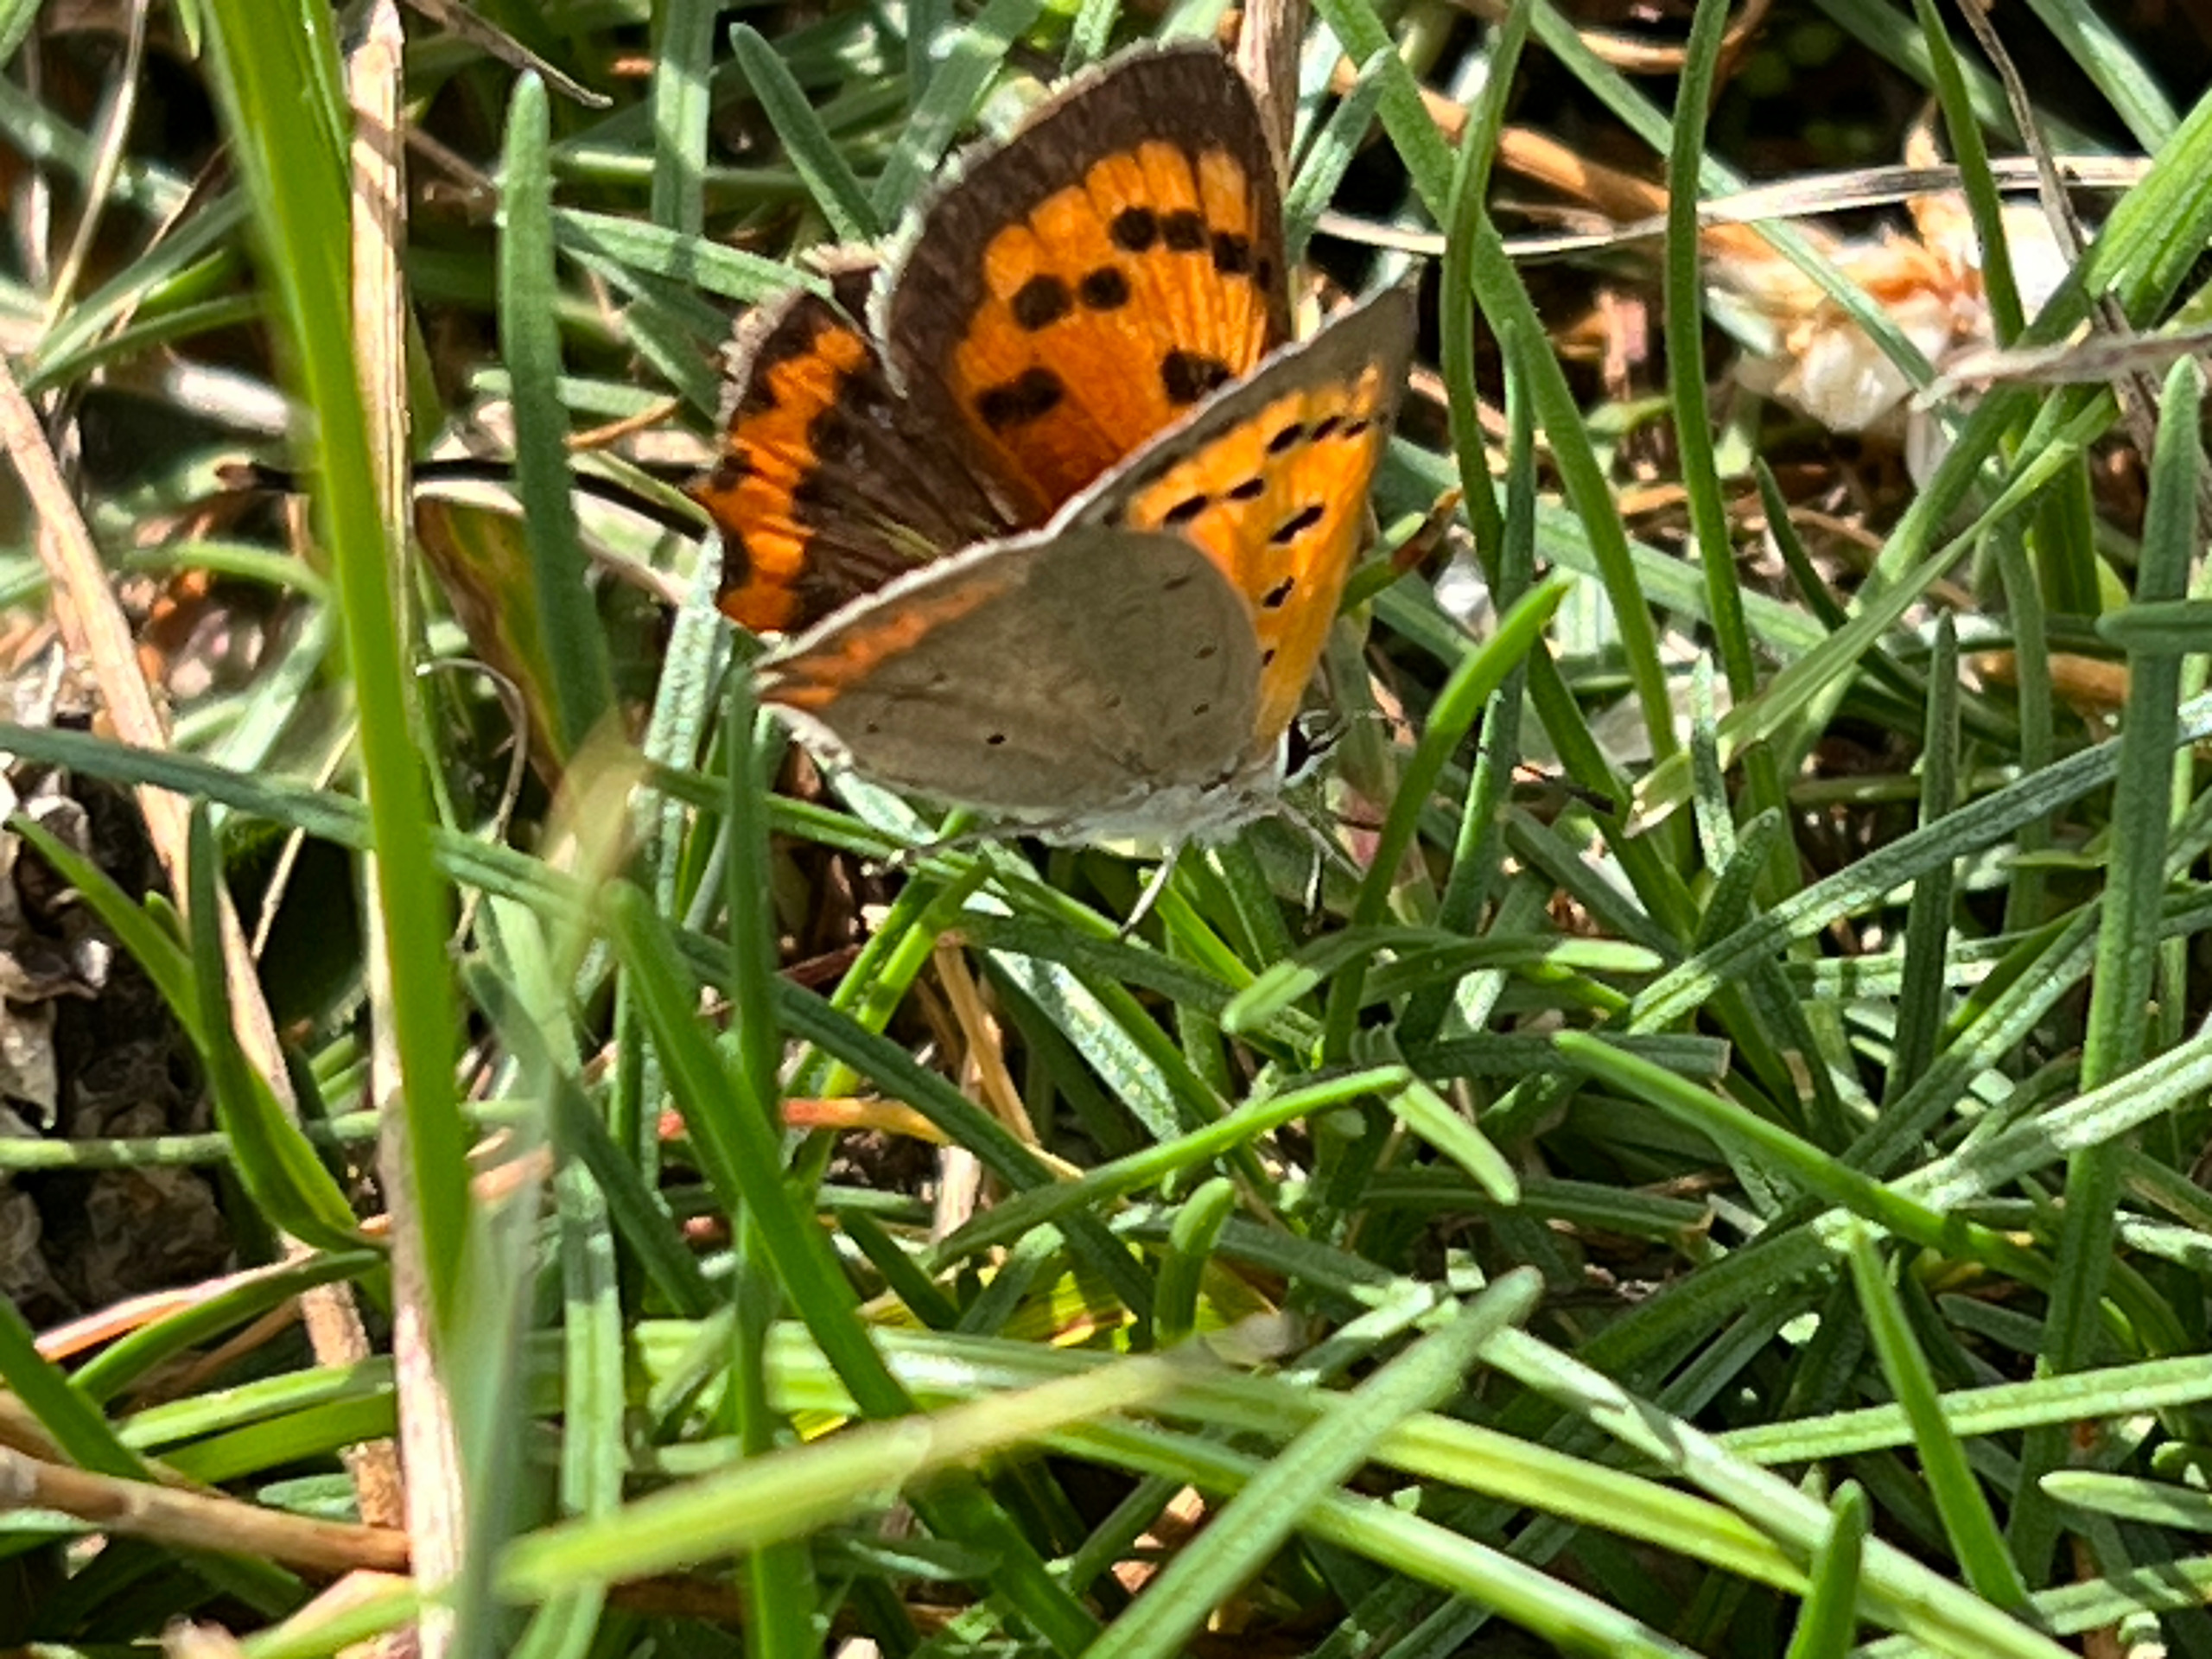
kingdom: Animalia
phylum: Arthropoda
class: Insecta
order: Lepidoptera
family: Lycaenidae
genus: Lycaena
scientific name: Lycaena phlaeas
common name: Lille ildfugl
